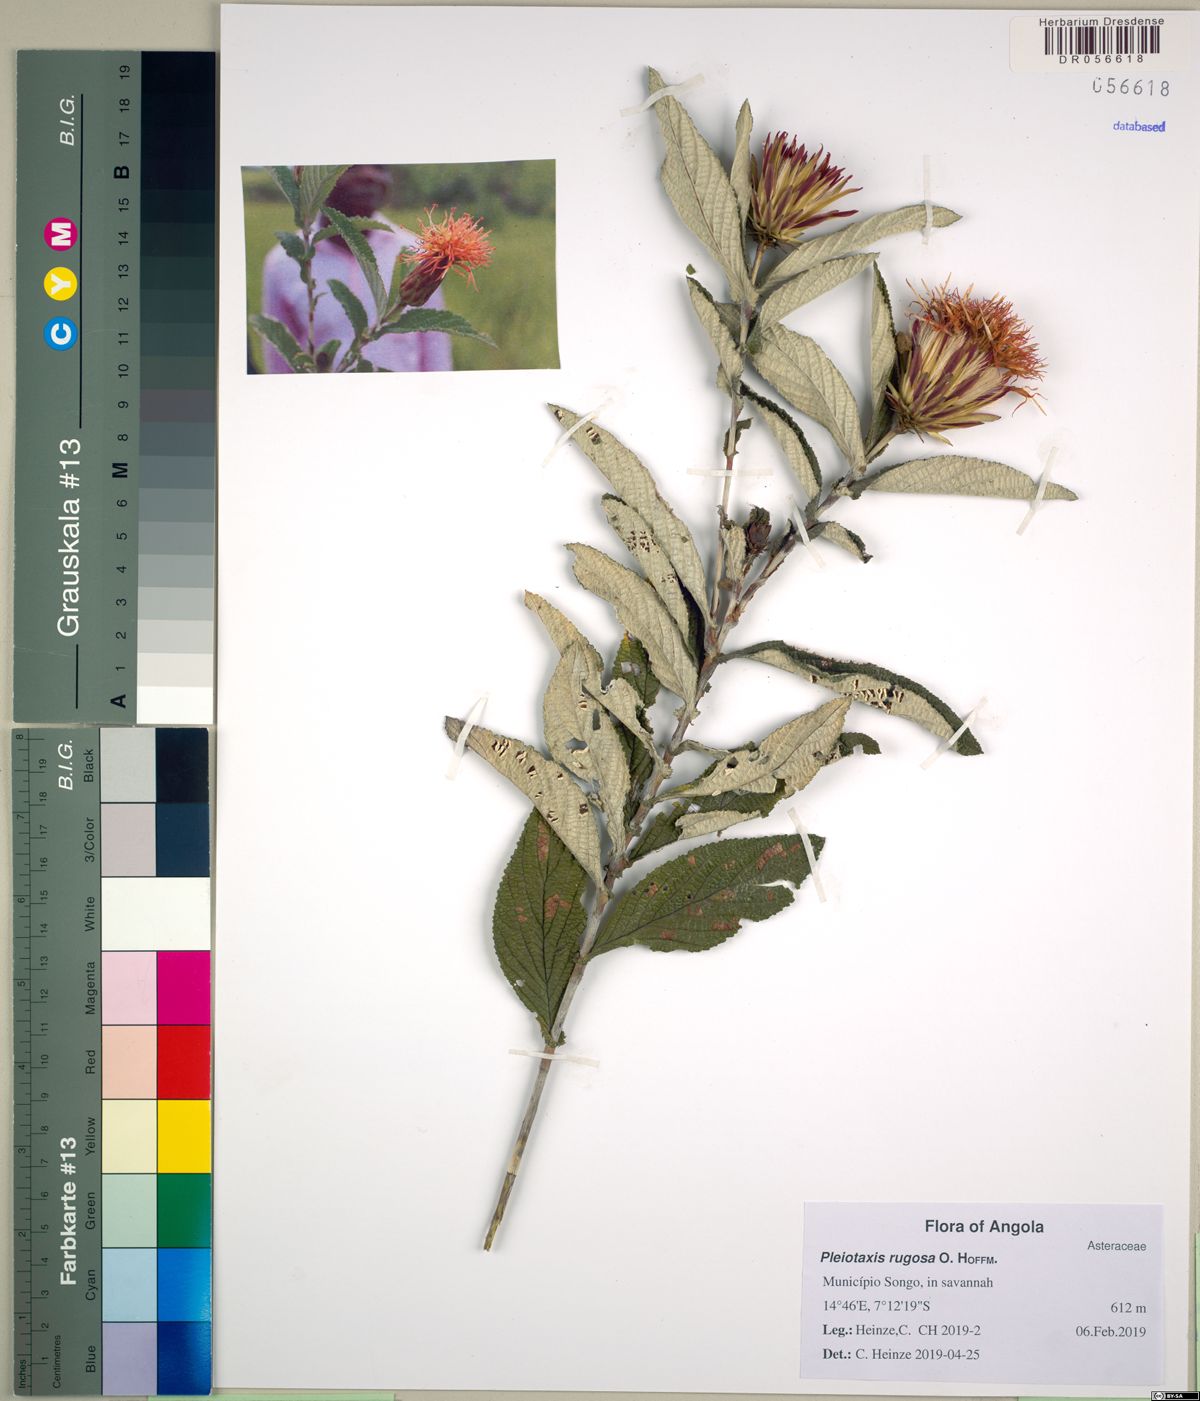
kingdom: Plantae
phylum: Tracheophyta
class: Magnoliopsida
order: Asterales
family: Asteraceae
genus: Pleiotaxis
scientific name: Pleiotaxis rugosa
